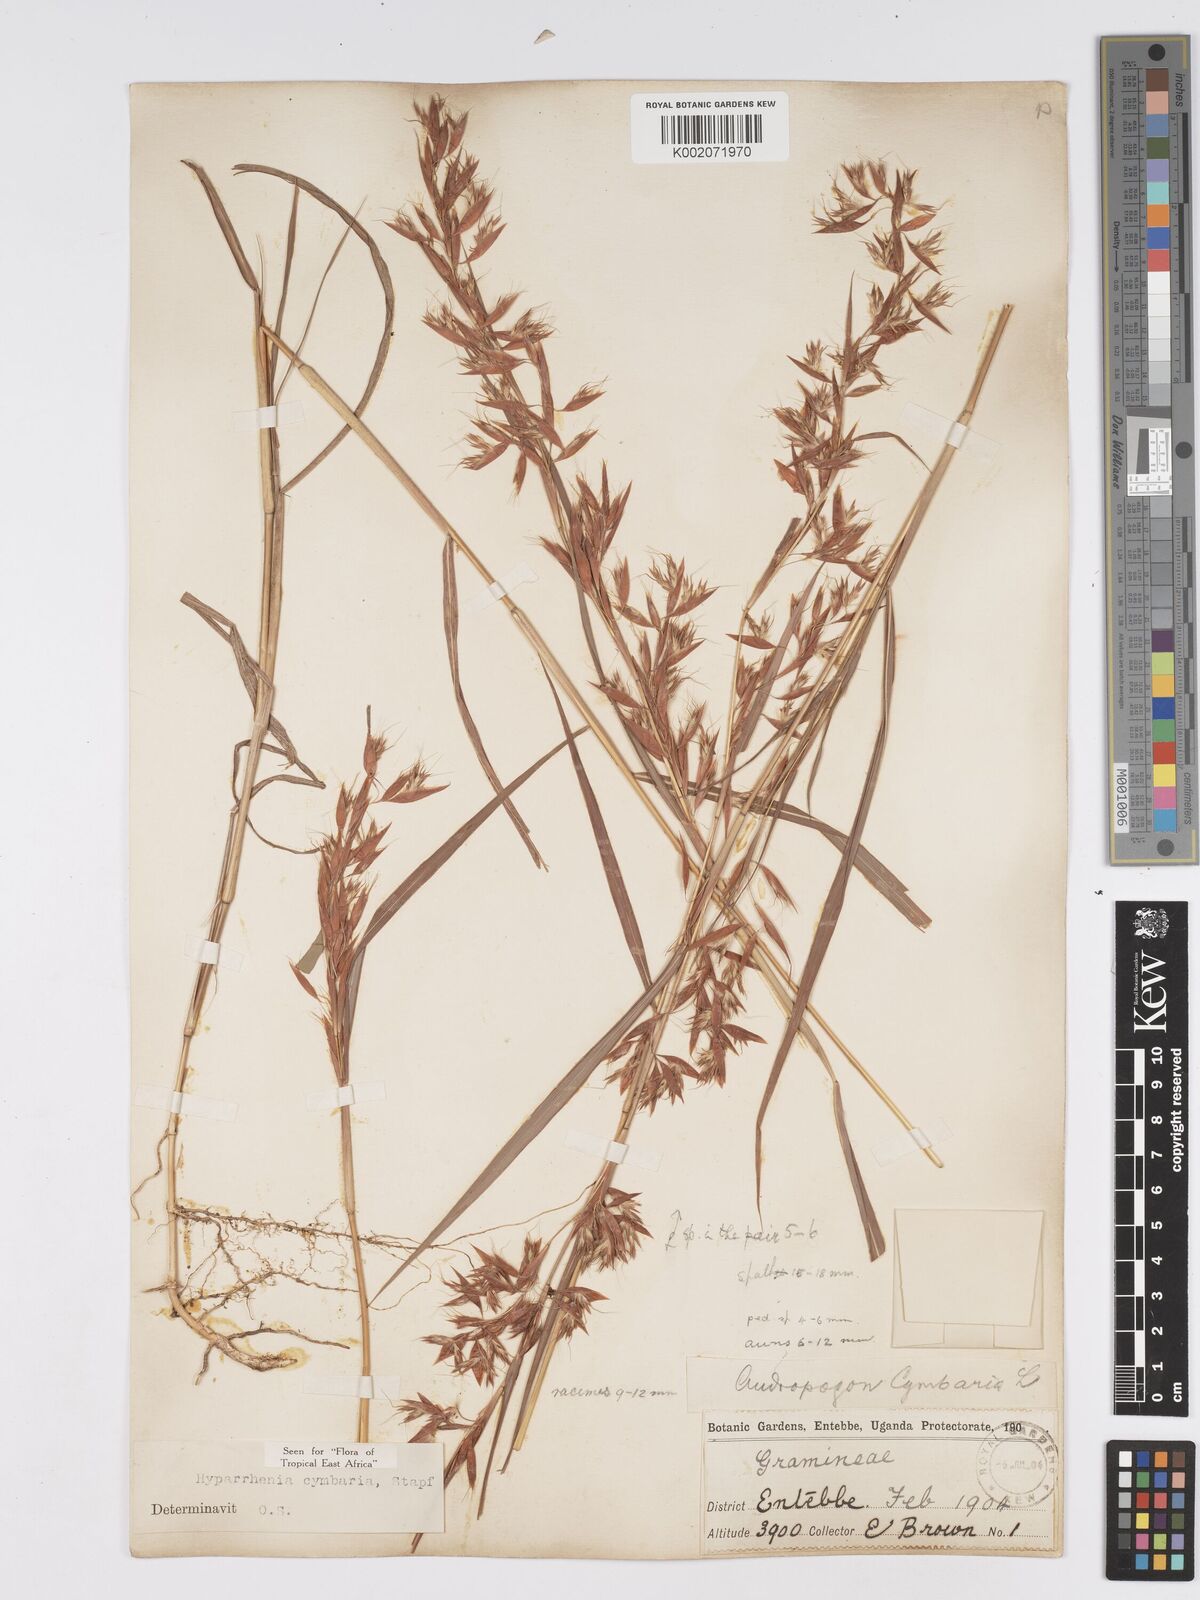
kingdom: Plantae
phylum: Tracheophyta
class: Liliopsida
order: Poales
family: Poaceae
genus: Hyparrhenia
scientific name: Hyparrhenia cymbaria
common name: Boat thatching grass
